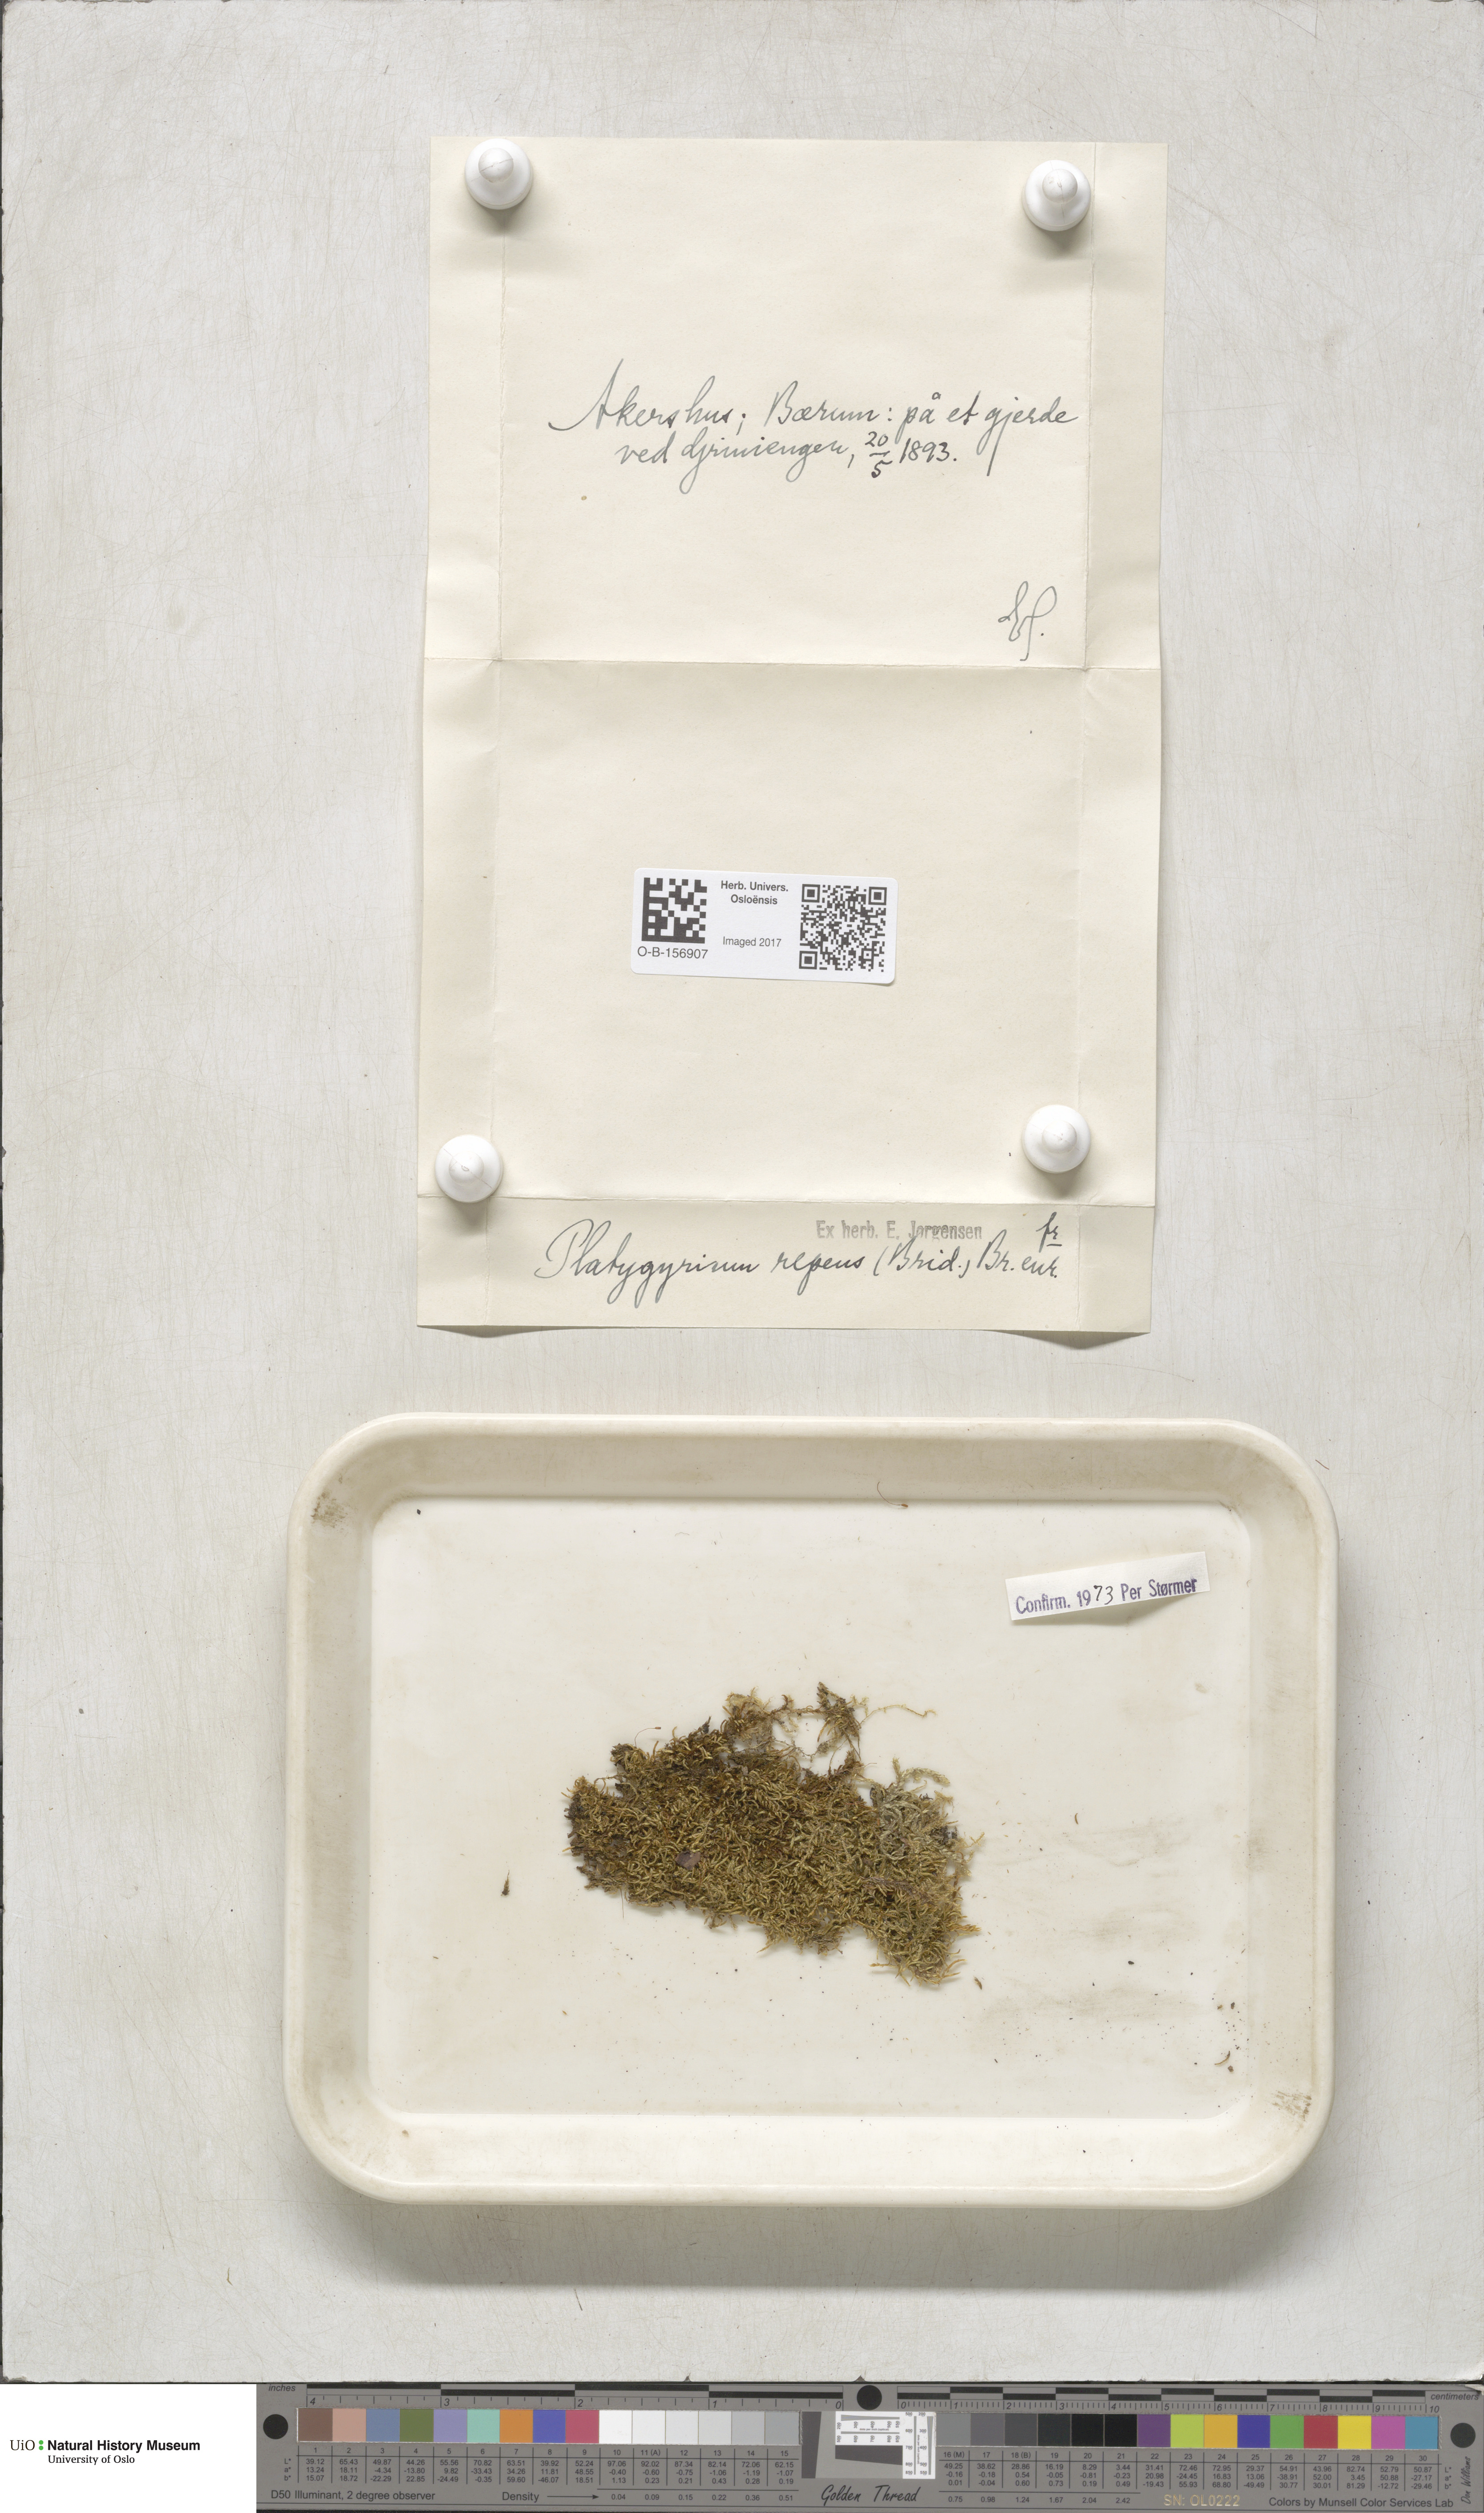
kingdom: Plantae
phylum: Bryophyta
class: Bryopsida
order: Hypnales
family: Pylaisiadelphaceae
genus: Platygyrium
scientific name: Platygyrium repens
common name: Flat-brocade moss
